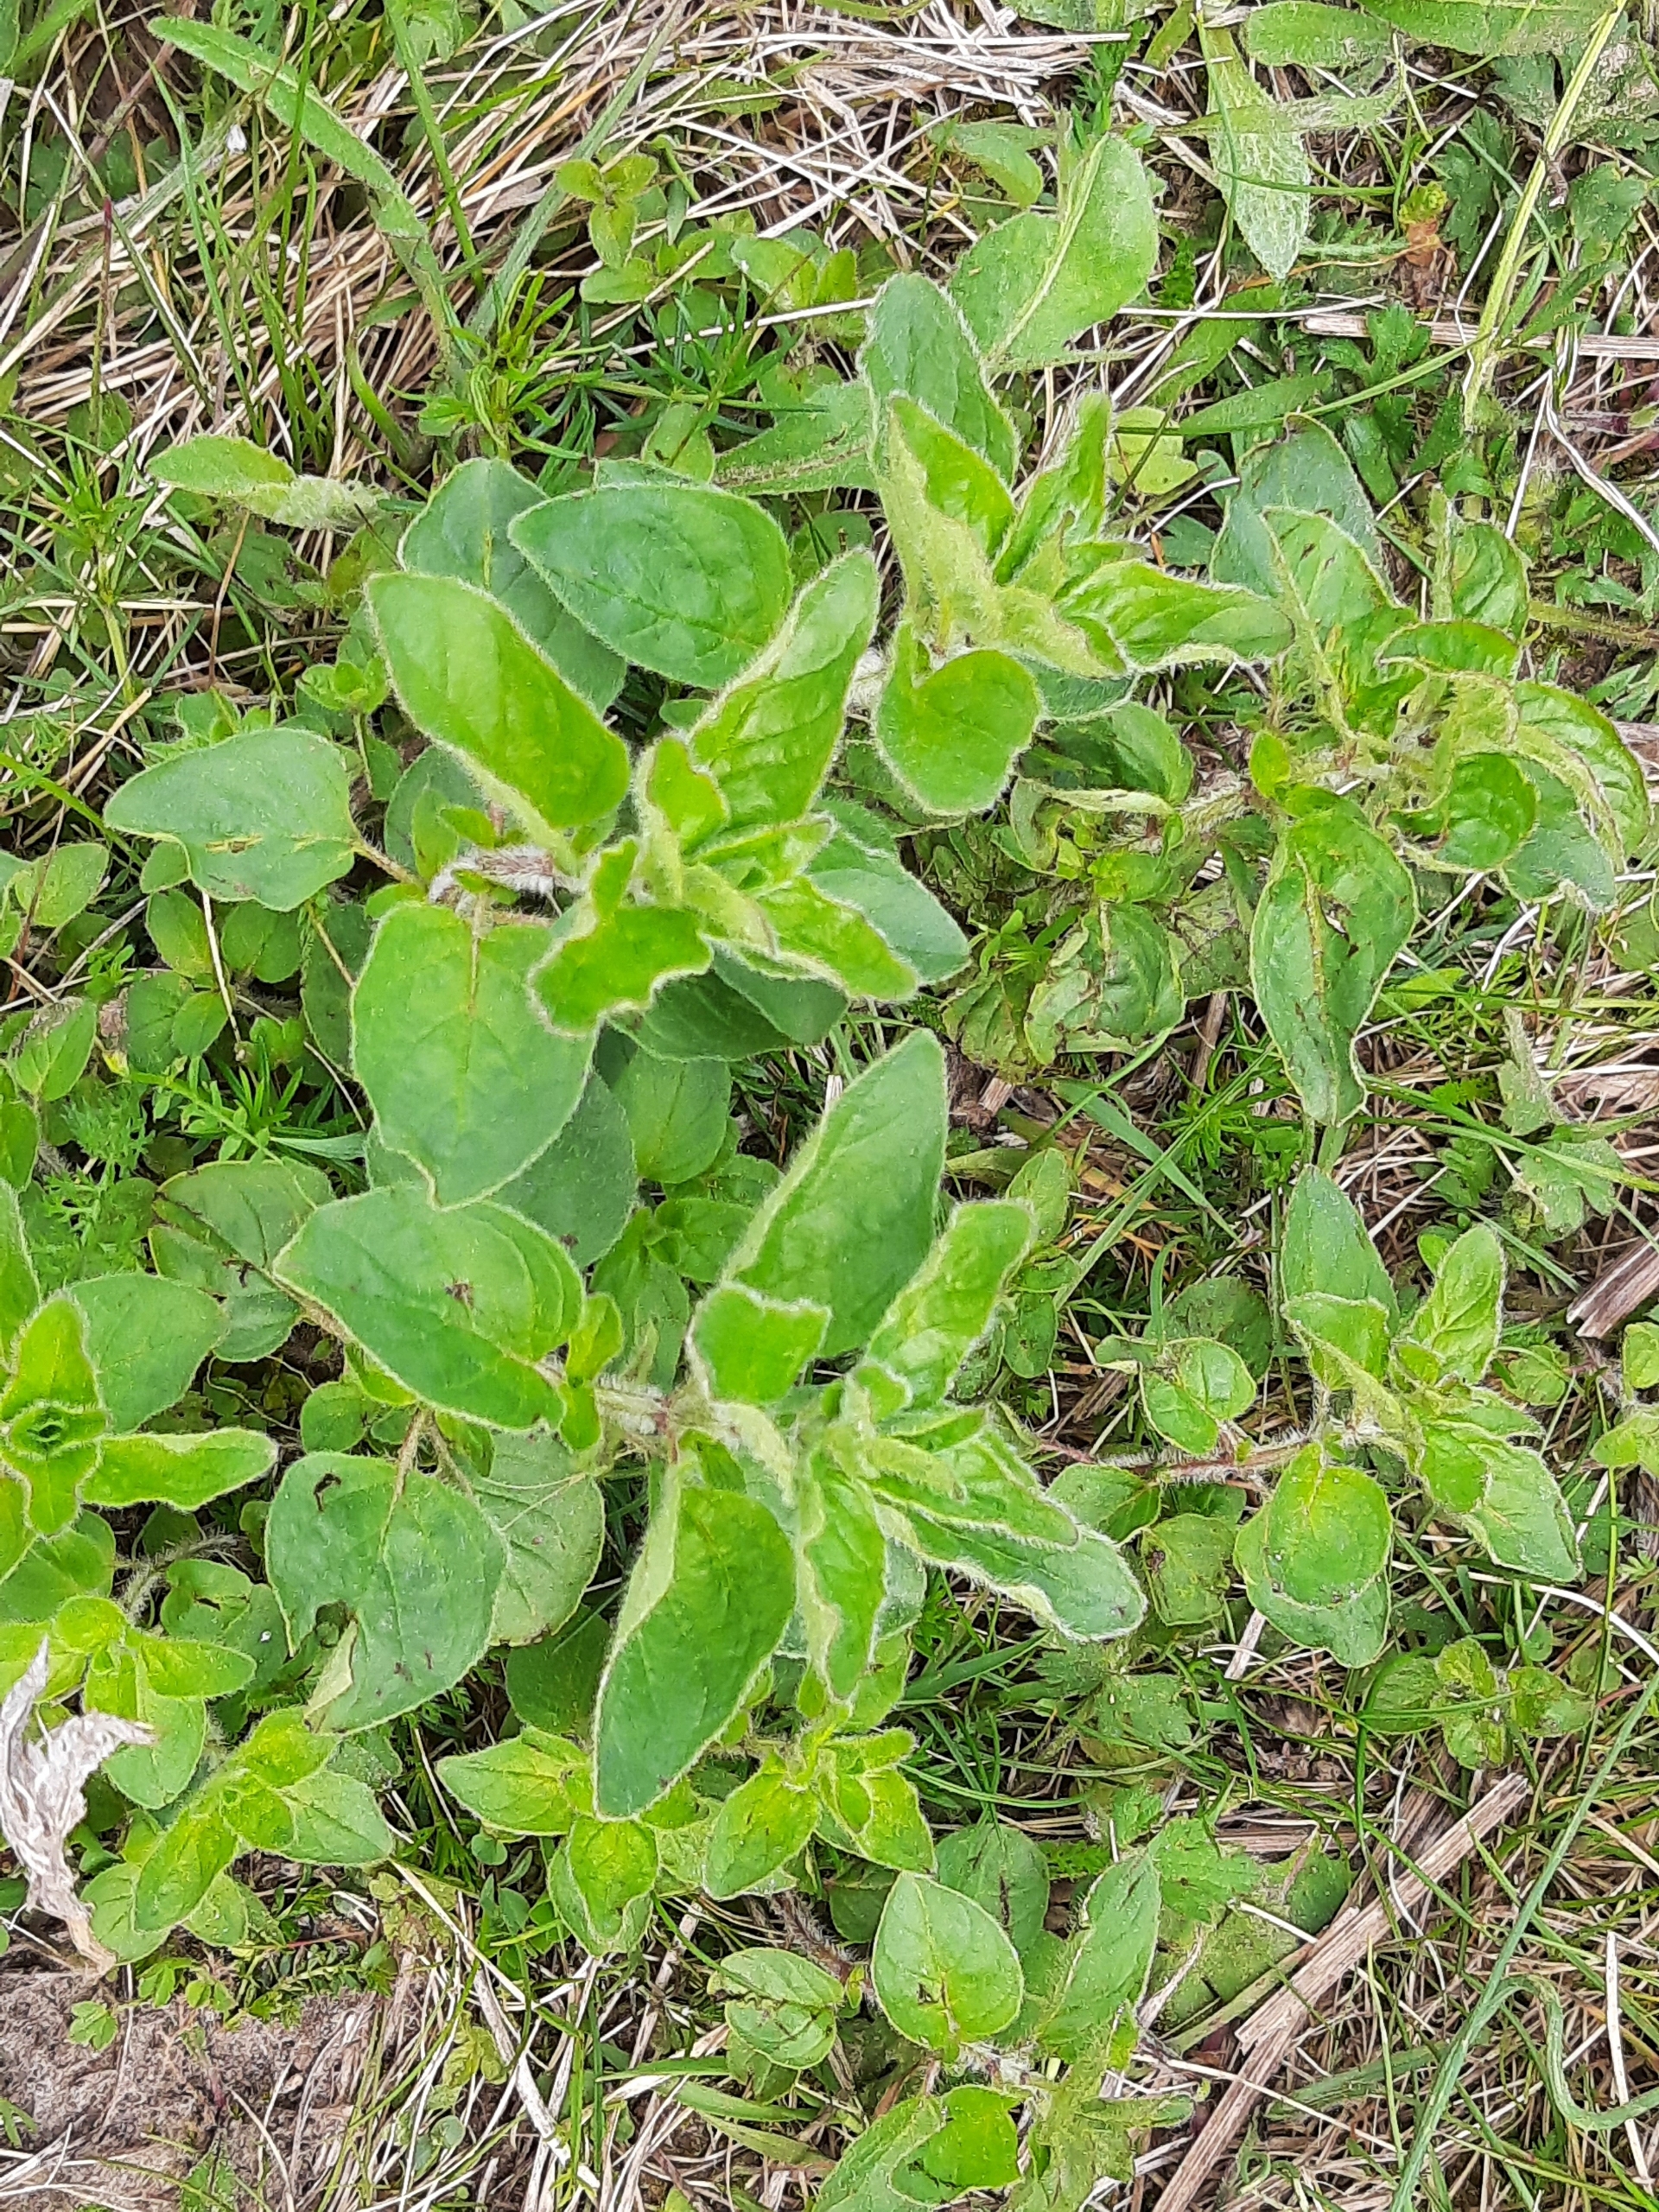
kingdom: Plantae
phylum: Tracheophyta
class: Magnoliopsida
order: Lamiales
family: Lamiaceae
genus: Origanum
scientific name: Origanum vulgare
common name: Merian
